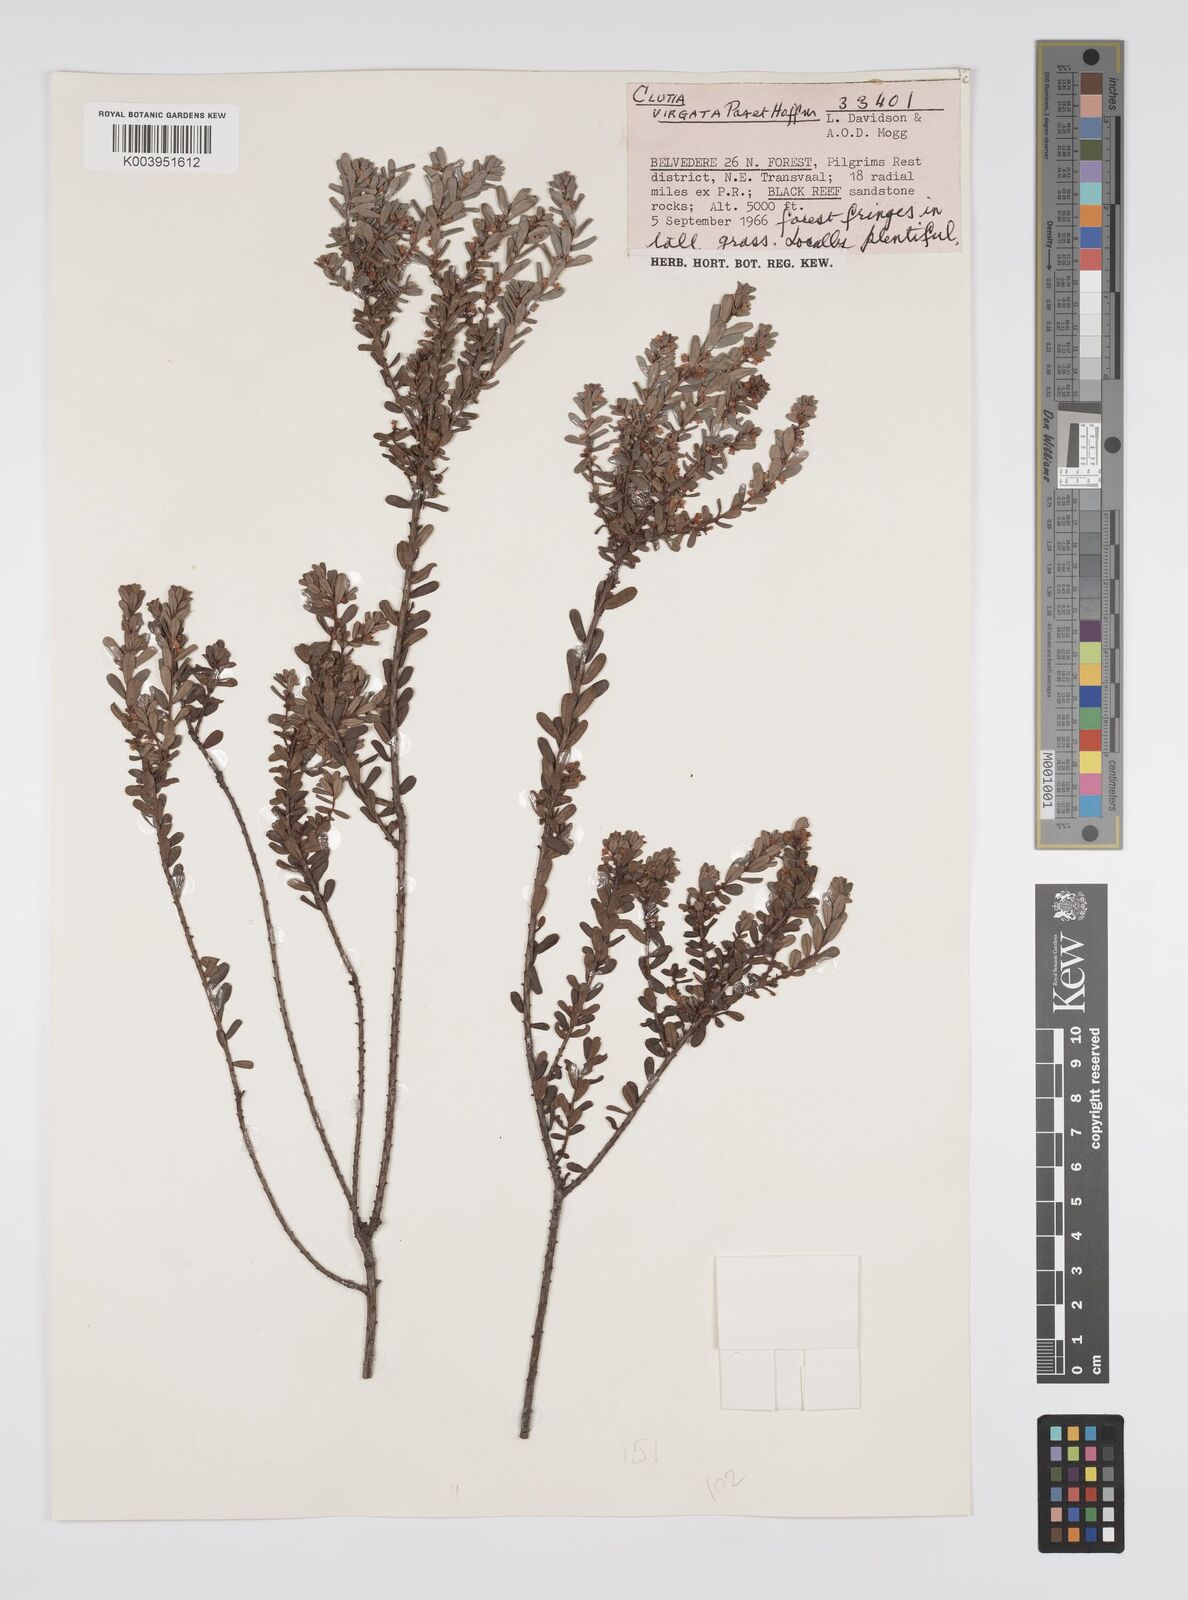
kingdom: Plantae
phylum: Tracheophyta
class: Magnoliopsida
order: Malpighiales
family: Peraceae
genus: Clutia
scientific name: Clutia virgata
